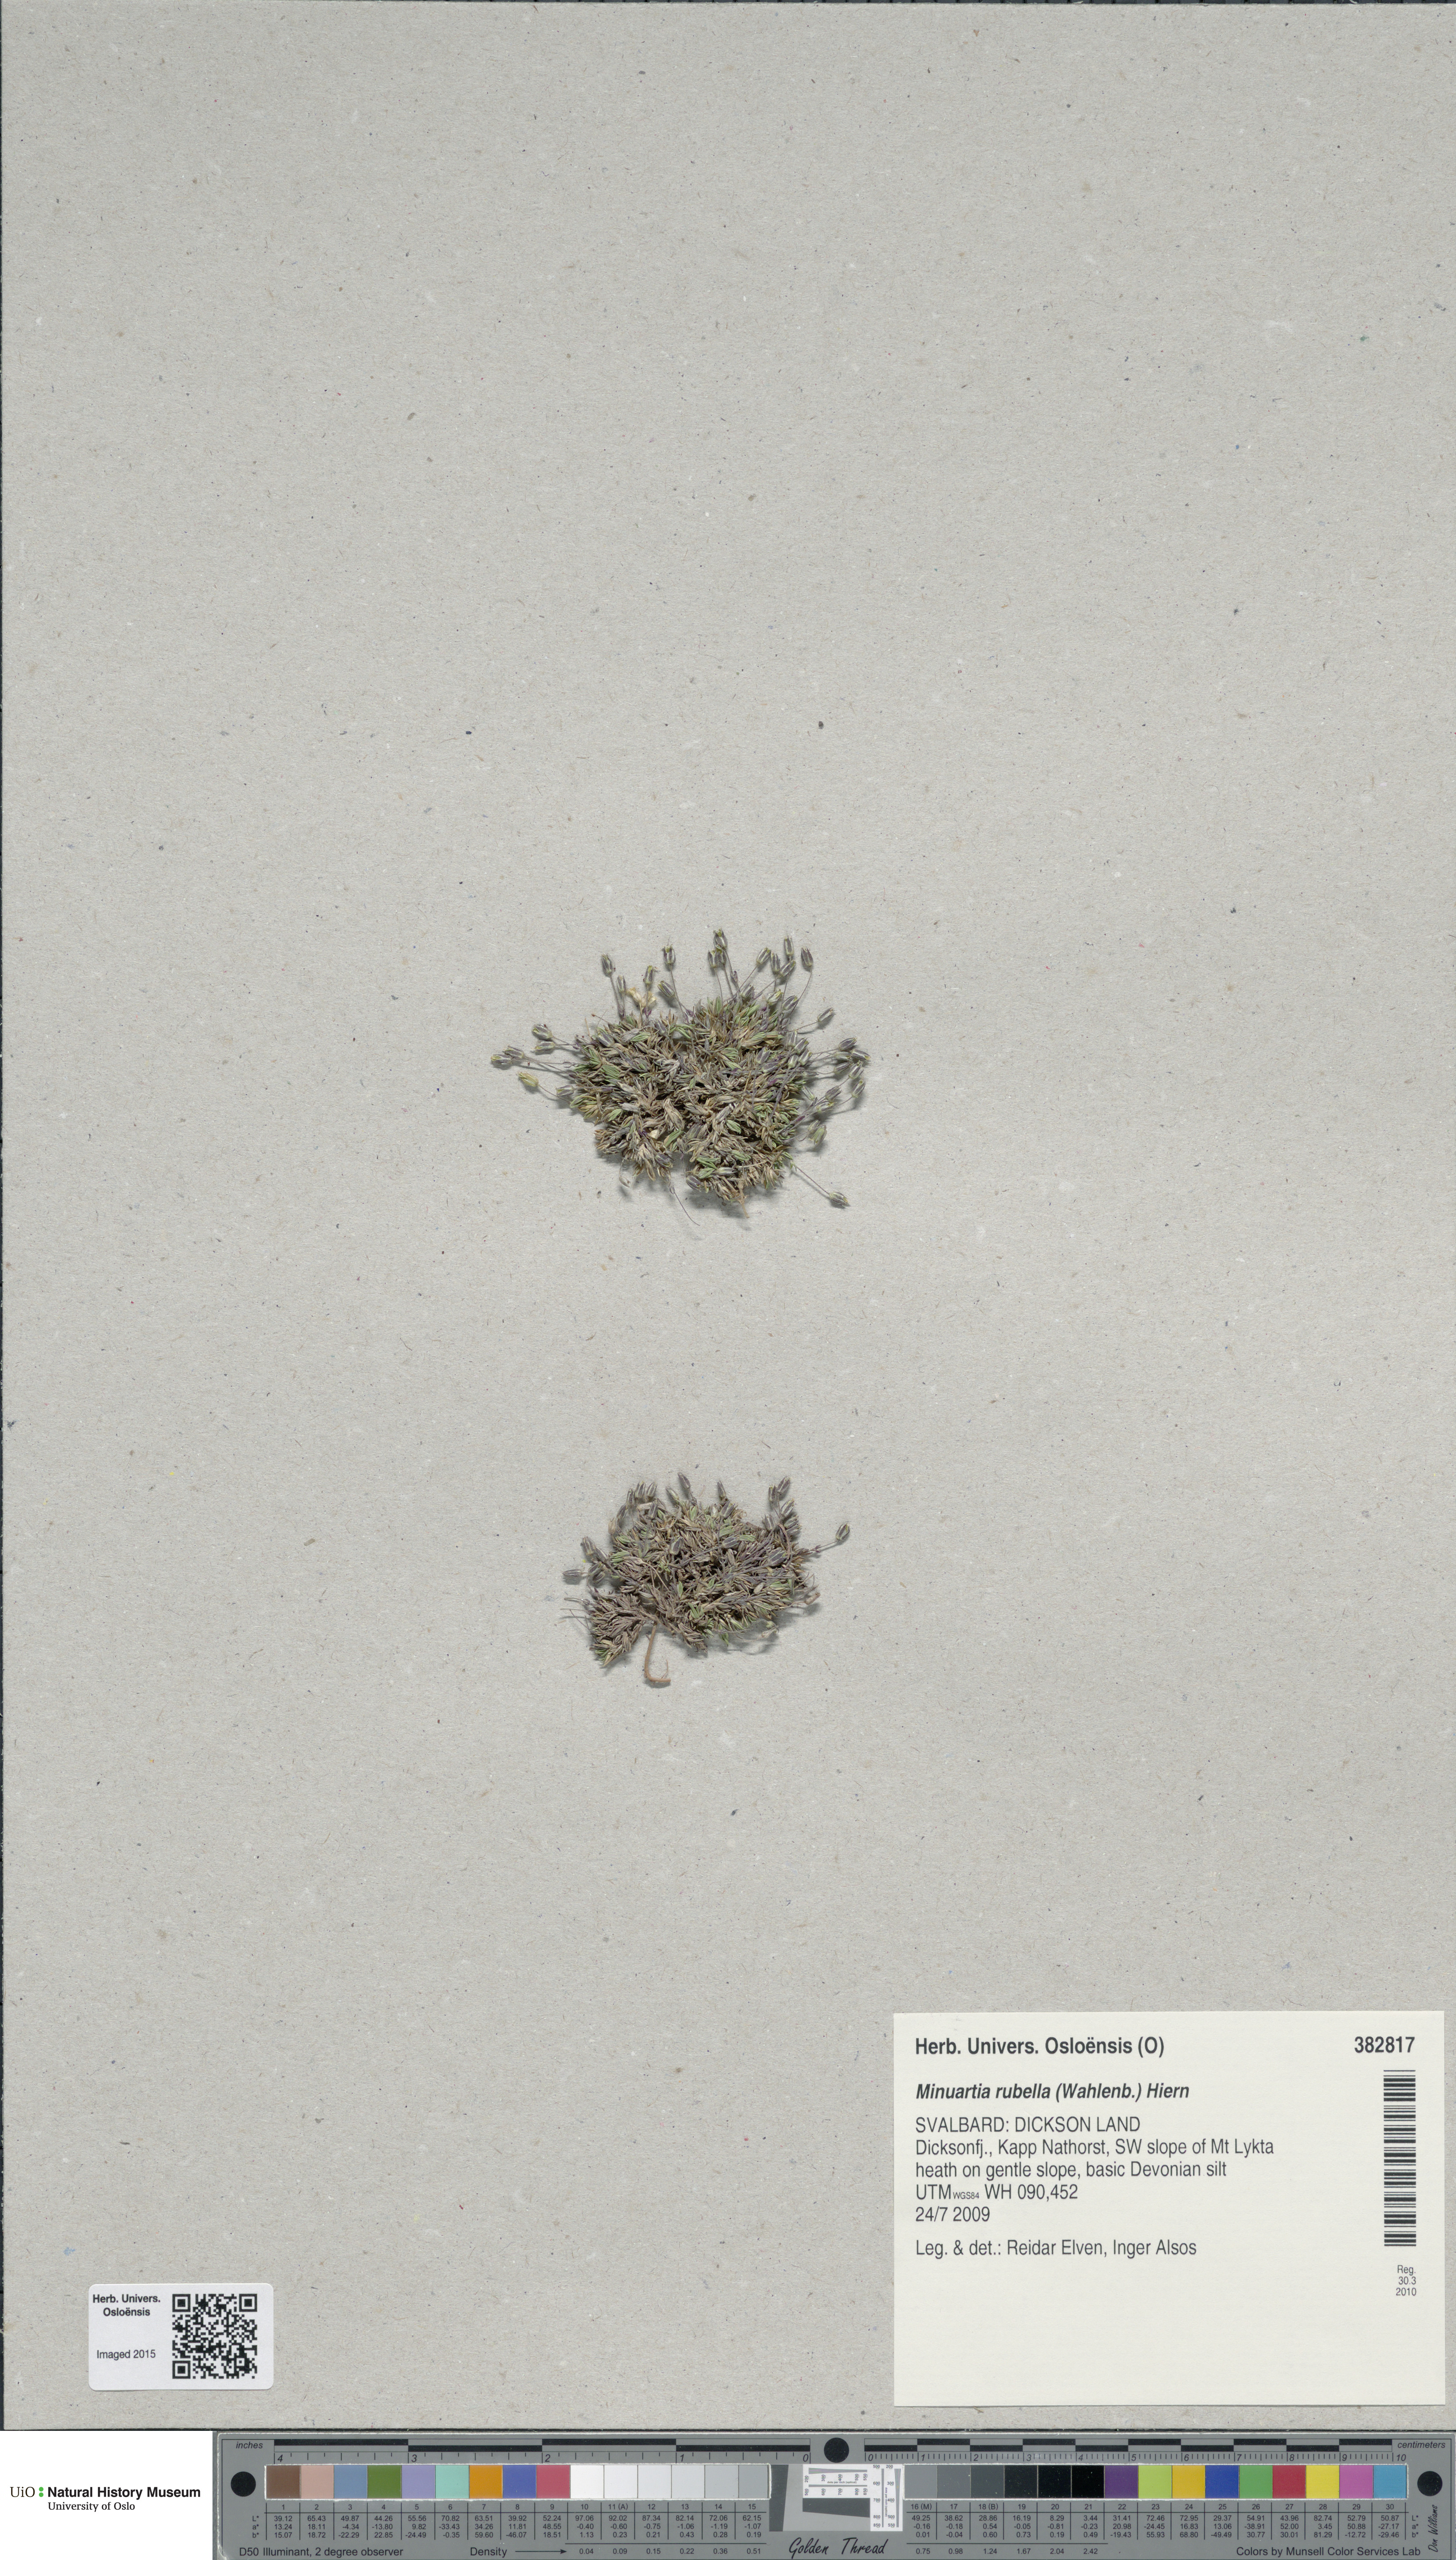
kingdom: Plantae
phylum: Tracheophyta
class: Magnoliopsida
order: Caryophyllales
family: Caryophyllaceae
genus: Sabulina
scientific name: Sabulina rubella
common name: Beautiful sandwort
